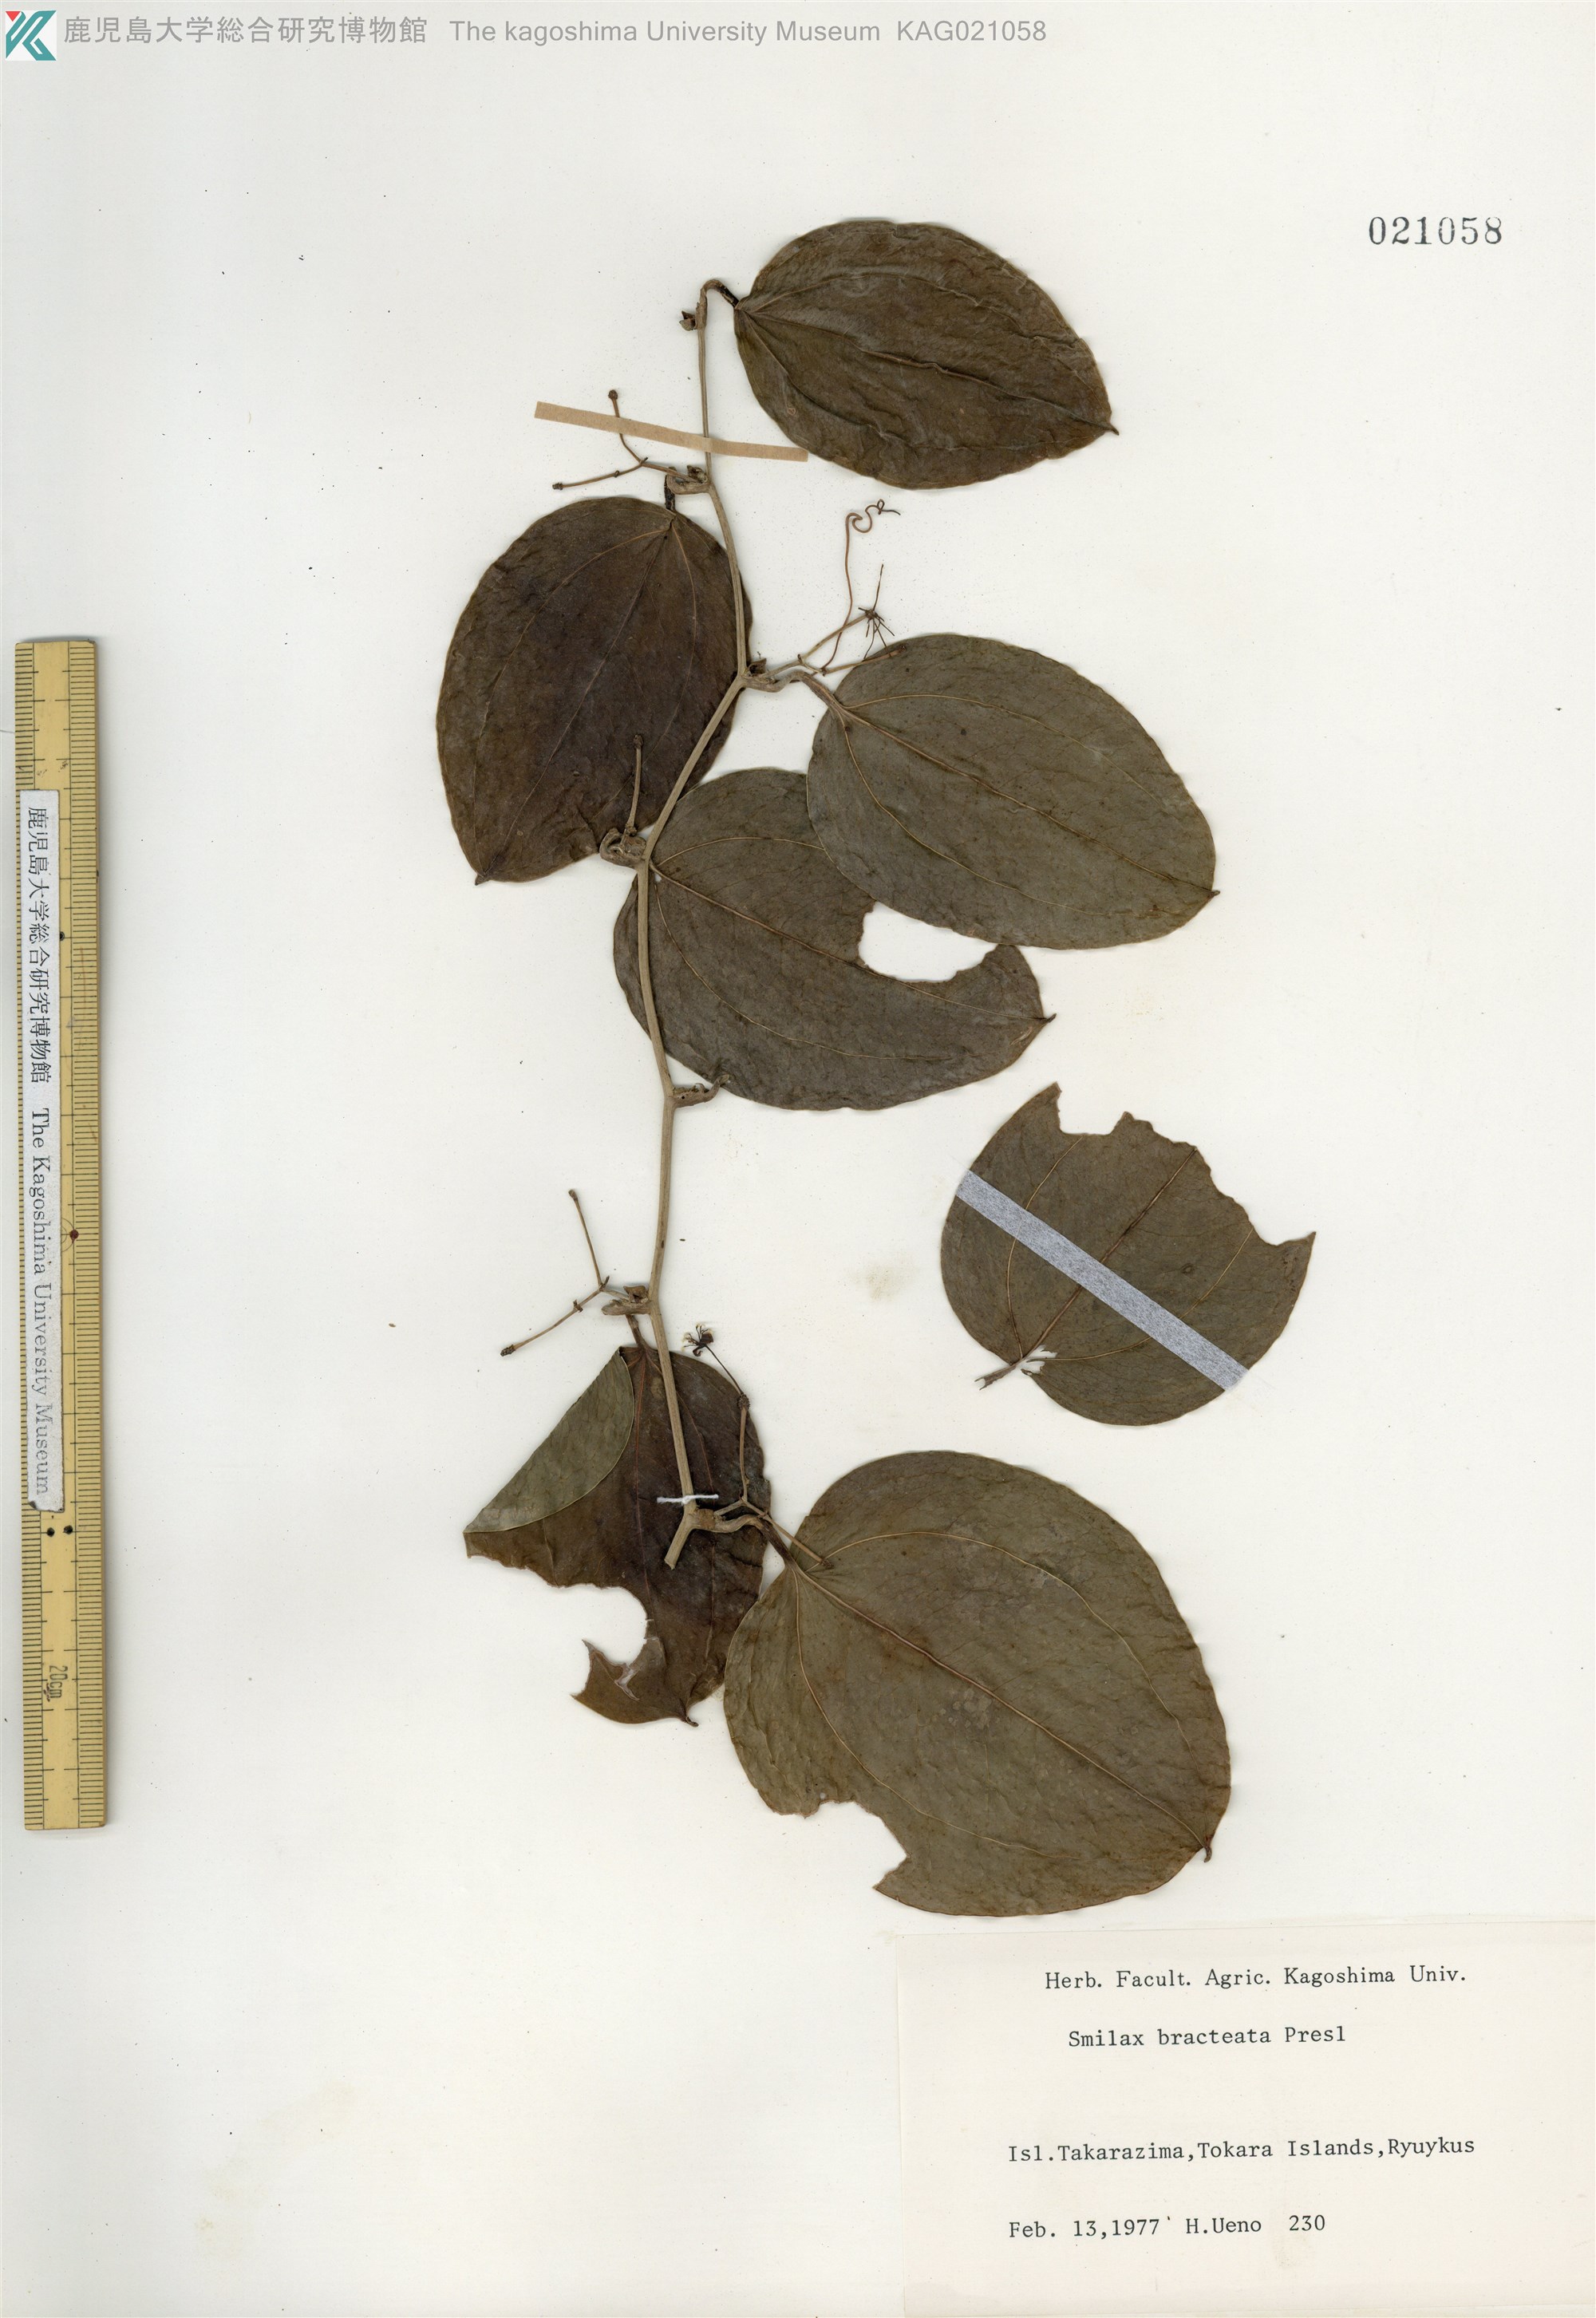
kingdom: Plantae
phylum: Tracheophyta
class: Liliopsida
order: Liliales
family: Smilacaceae
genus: Smilax
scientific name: Smilax bracteata
